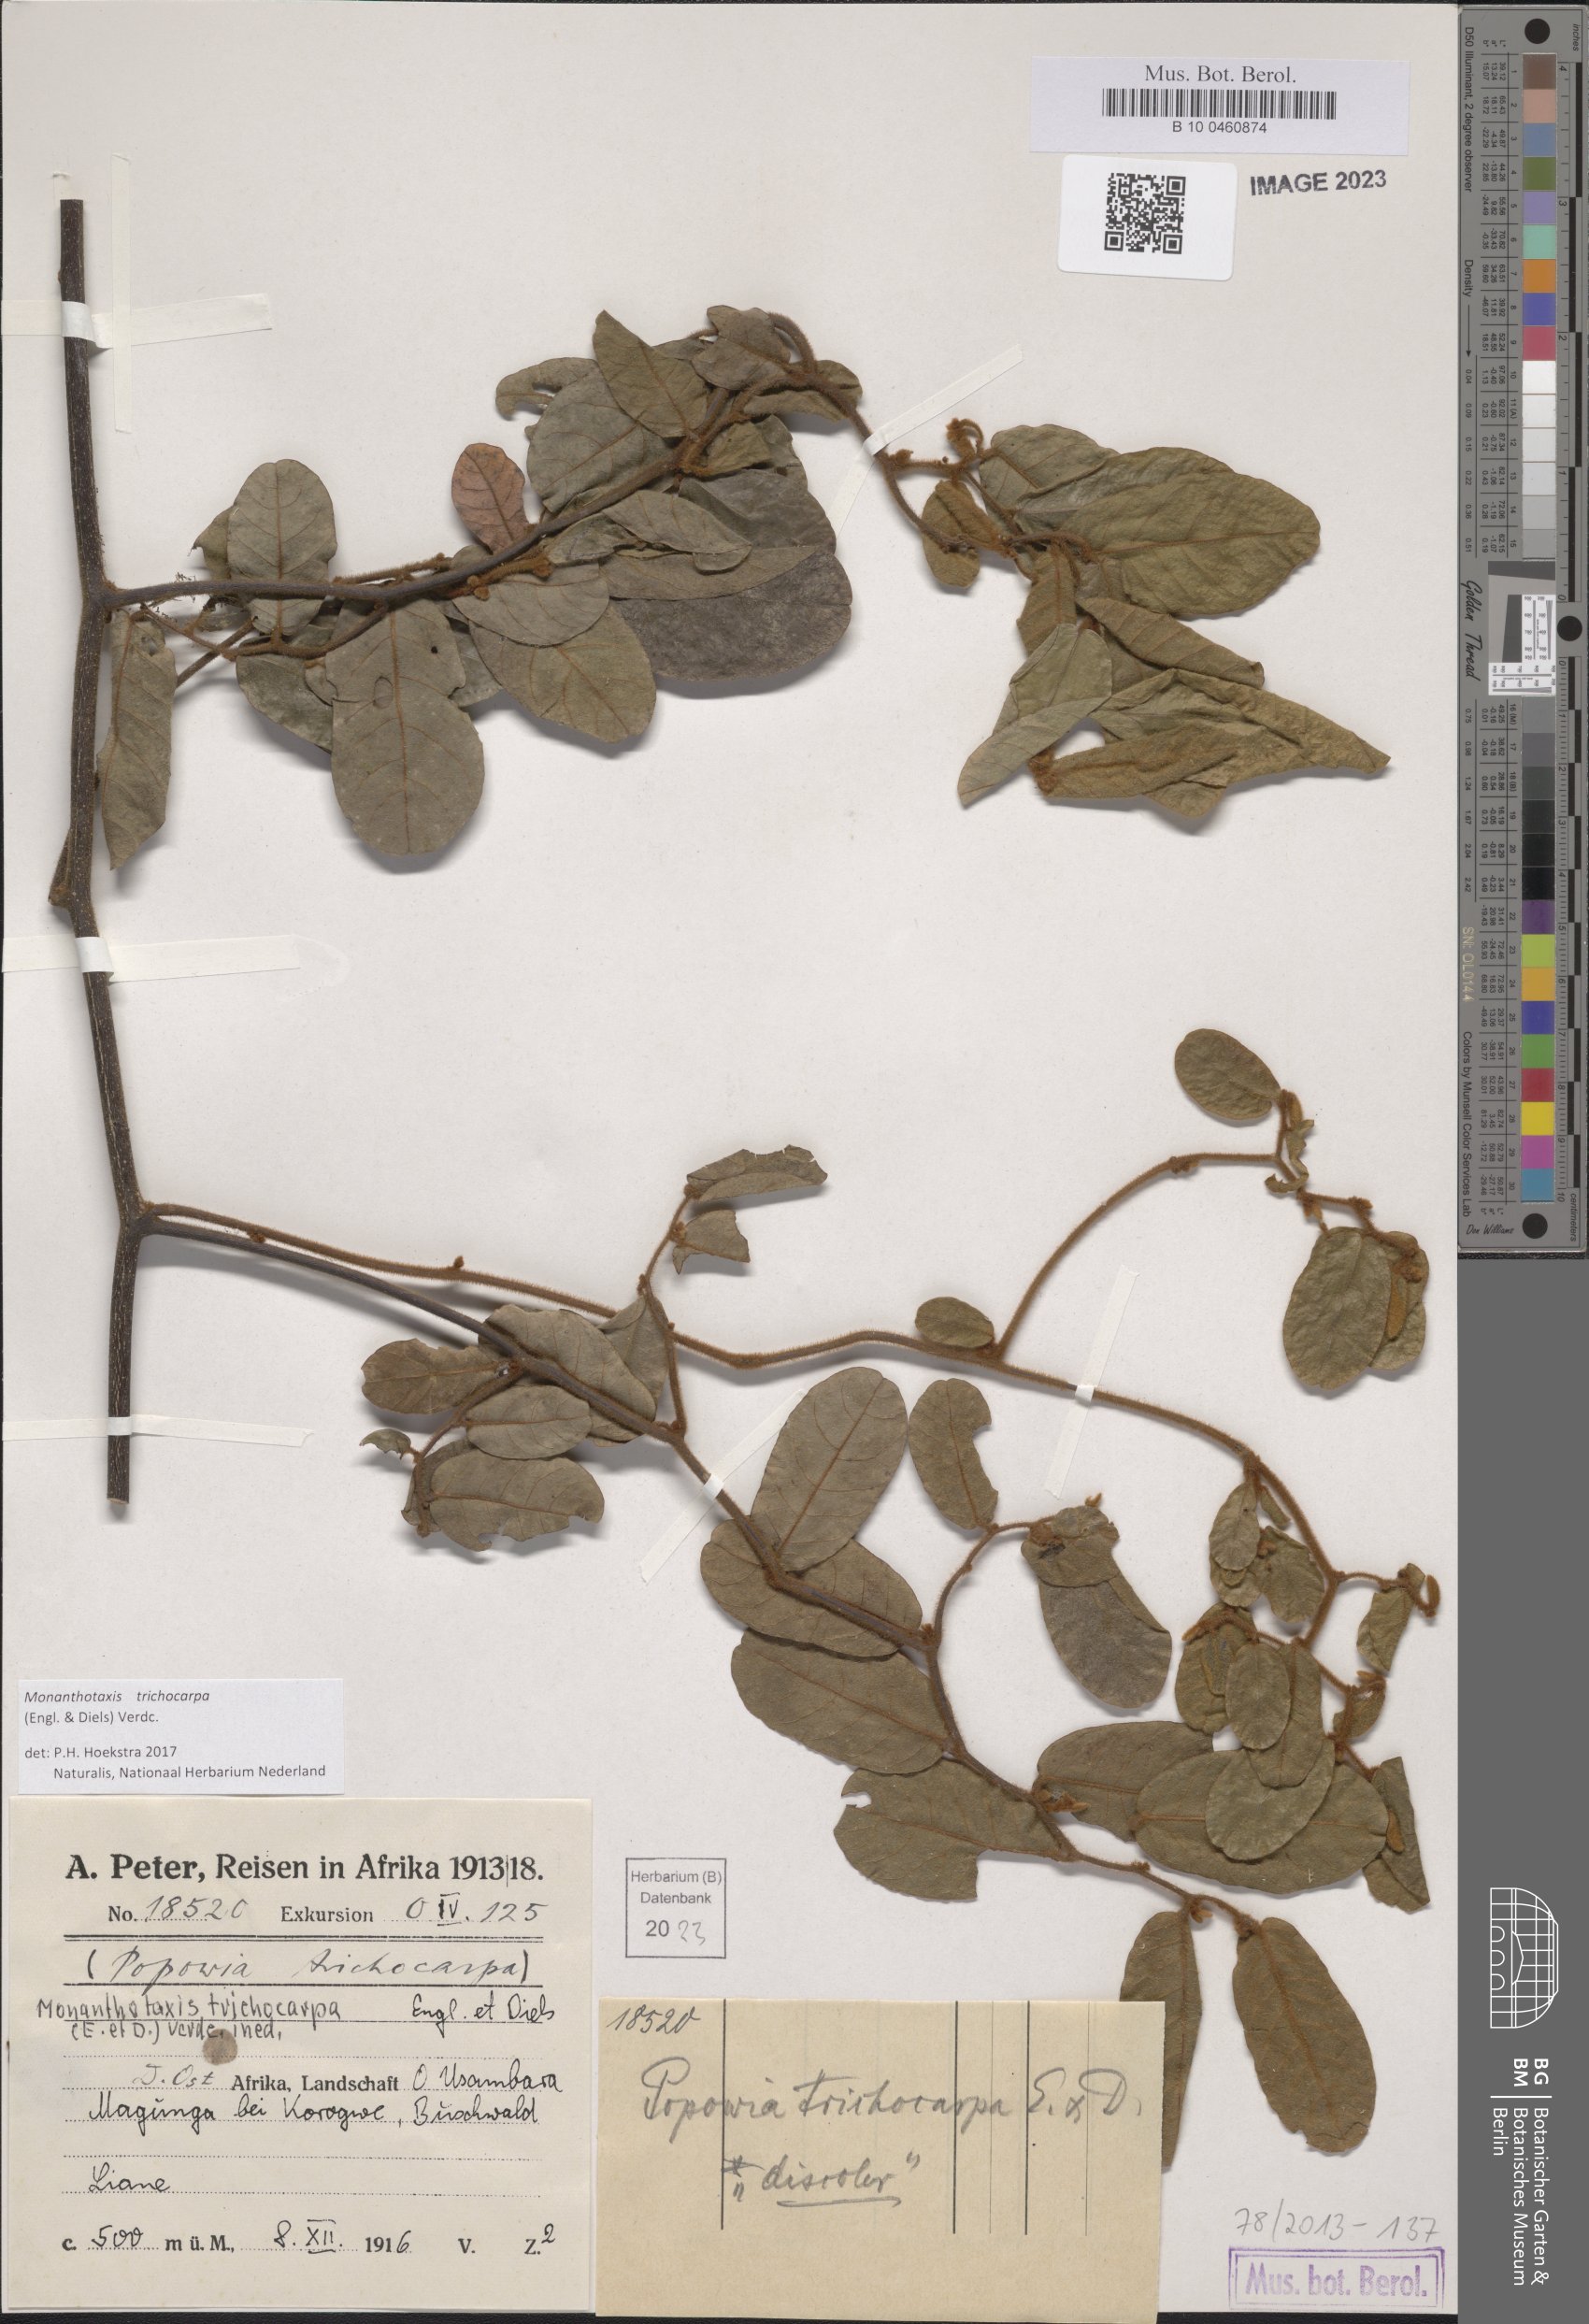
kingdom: Plantae
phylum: Tracheophyta
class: Magnoliopsida
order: Magnoliales
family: Annonaceae
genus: Monanthotaxis
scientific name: Monanthotaxis trichocarpa
